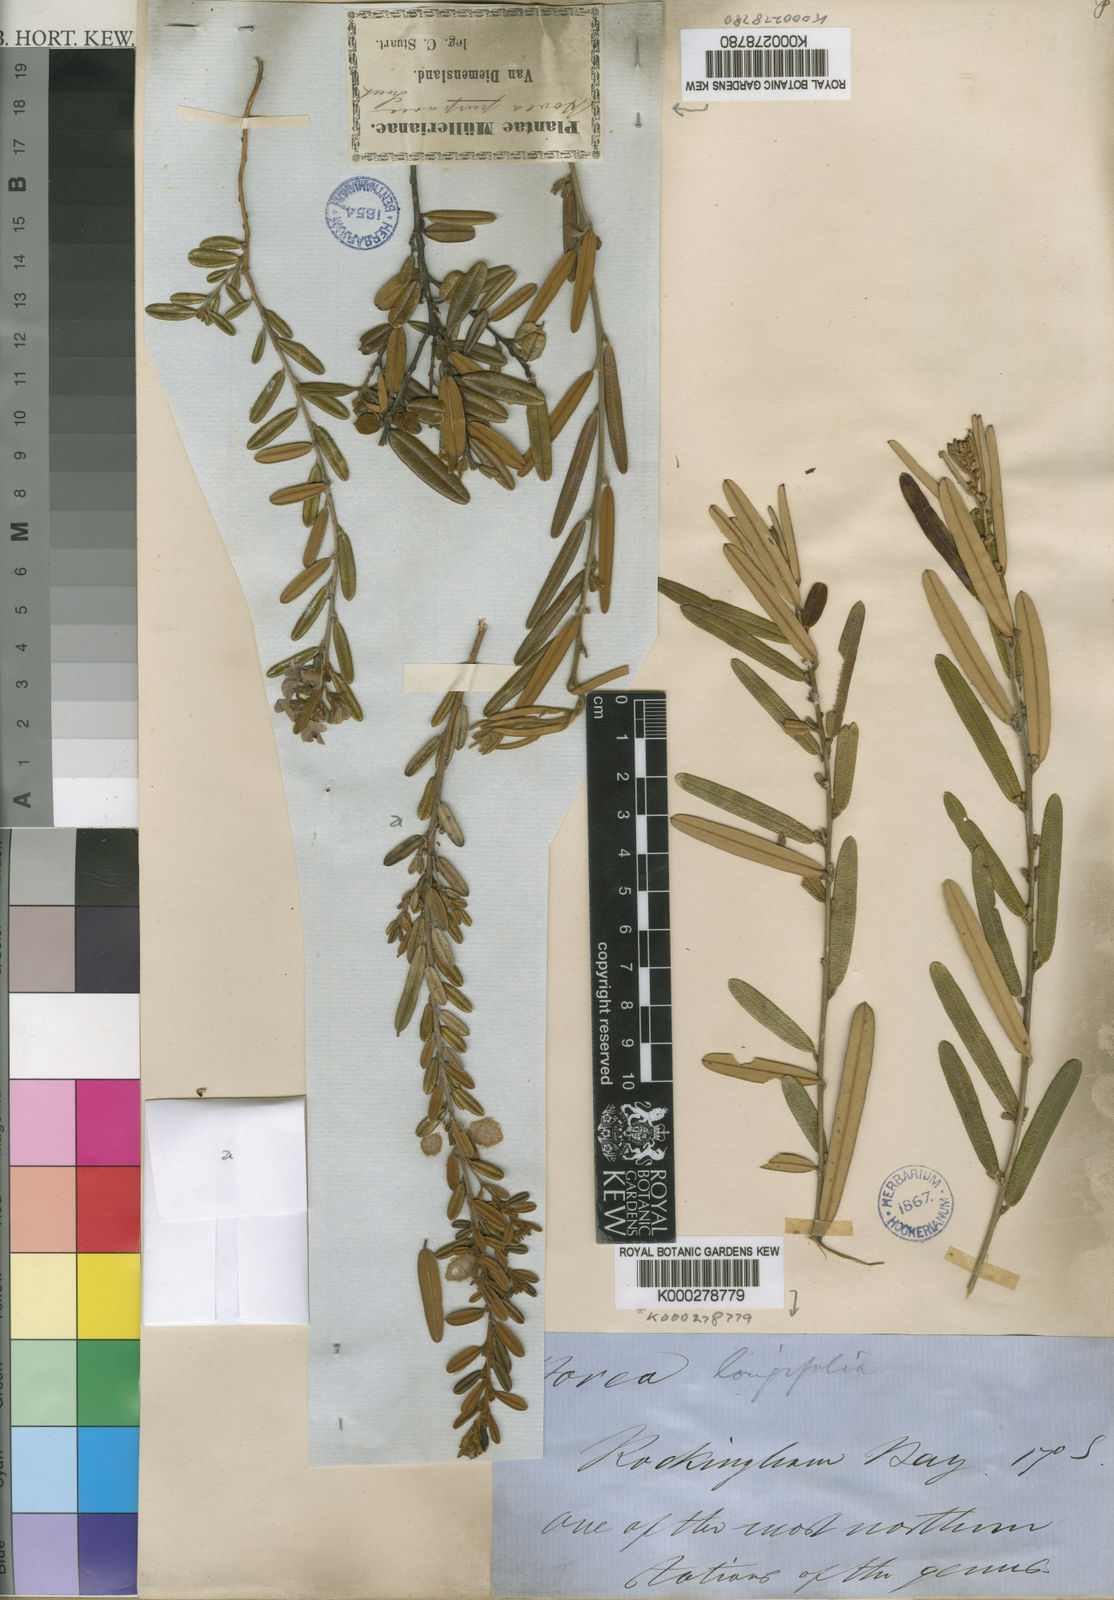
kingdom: Plantae
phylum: Tracheophyta
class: Magnoliopsida
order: Fabales
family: Fabaceae
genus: Hovea
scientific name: Hovea longifolia
